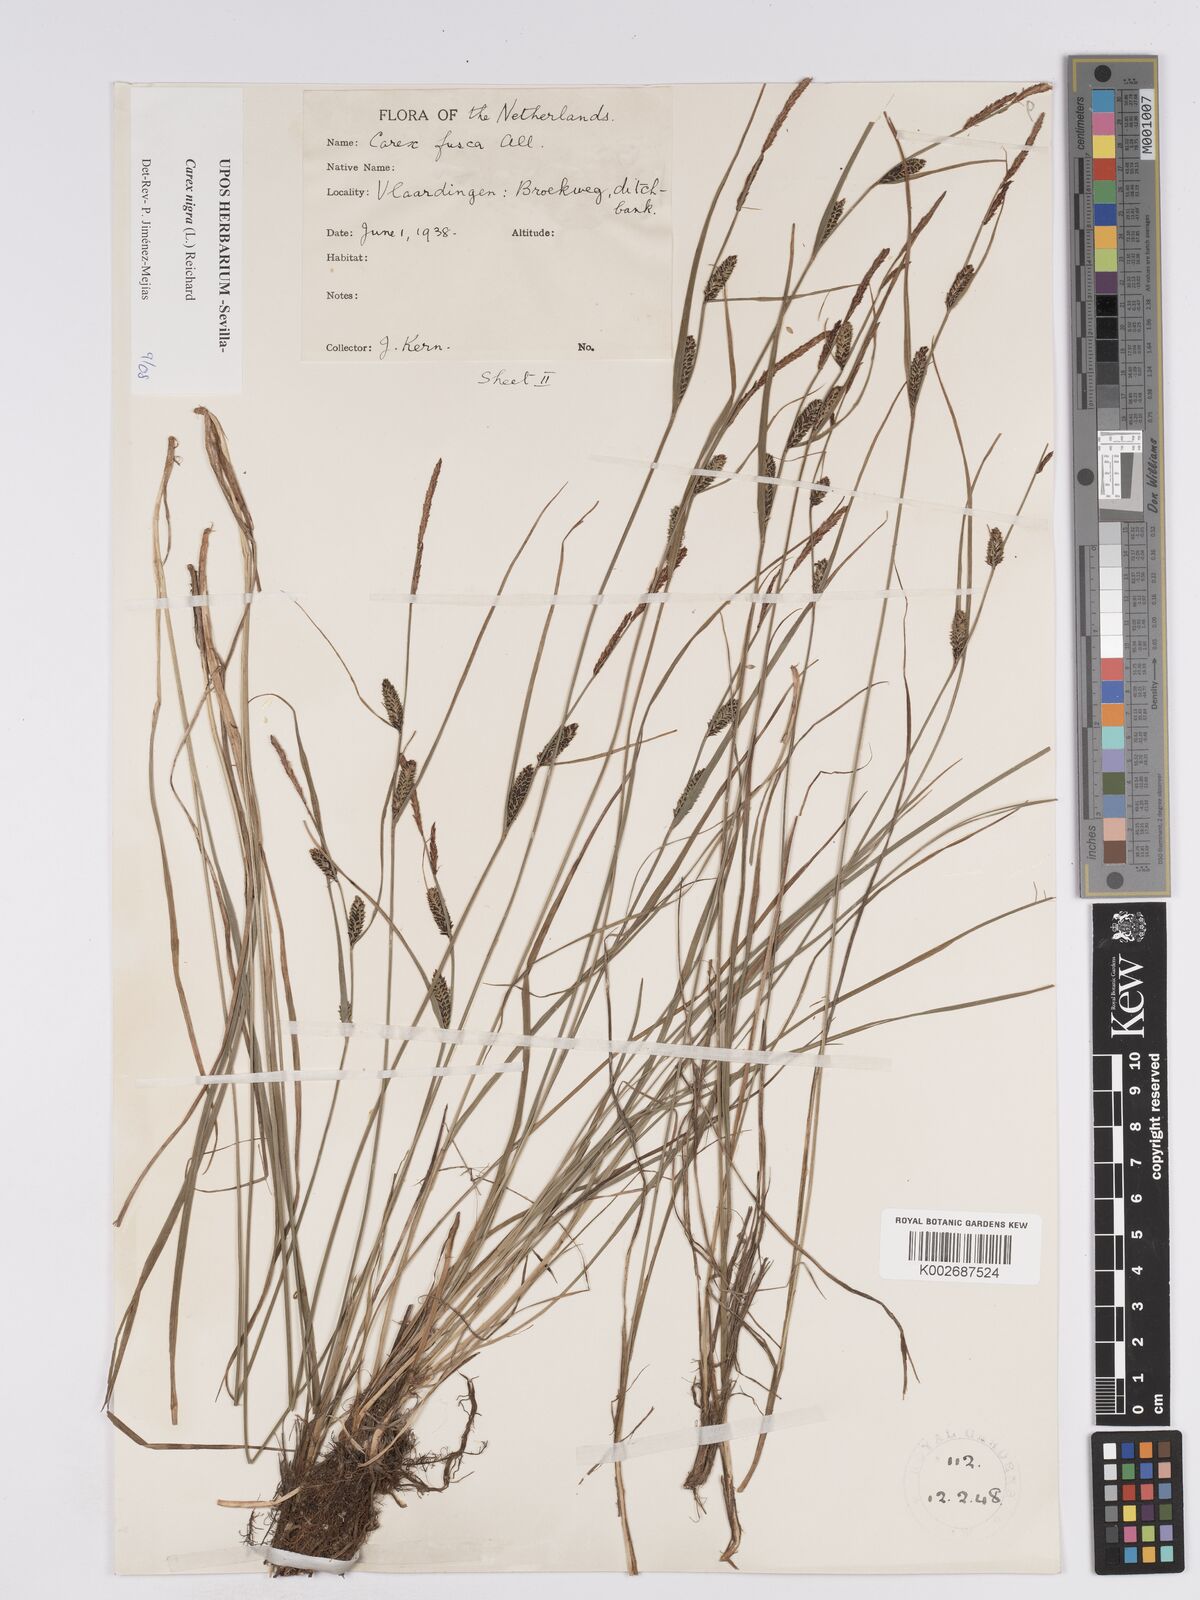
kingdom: Plantae
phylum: Tracheophyta
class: Liliopsida
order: Poales
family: Cyperaceae
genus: Carex
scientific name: Carex nigra
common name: Common sedge
